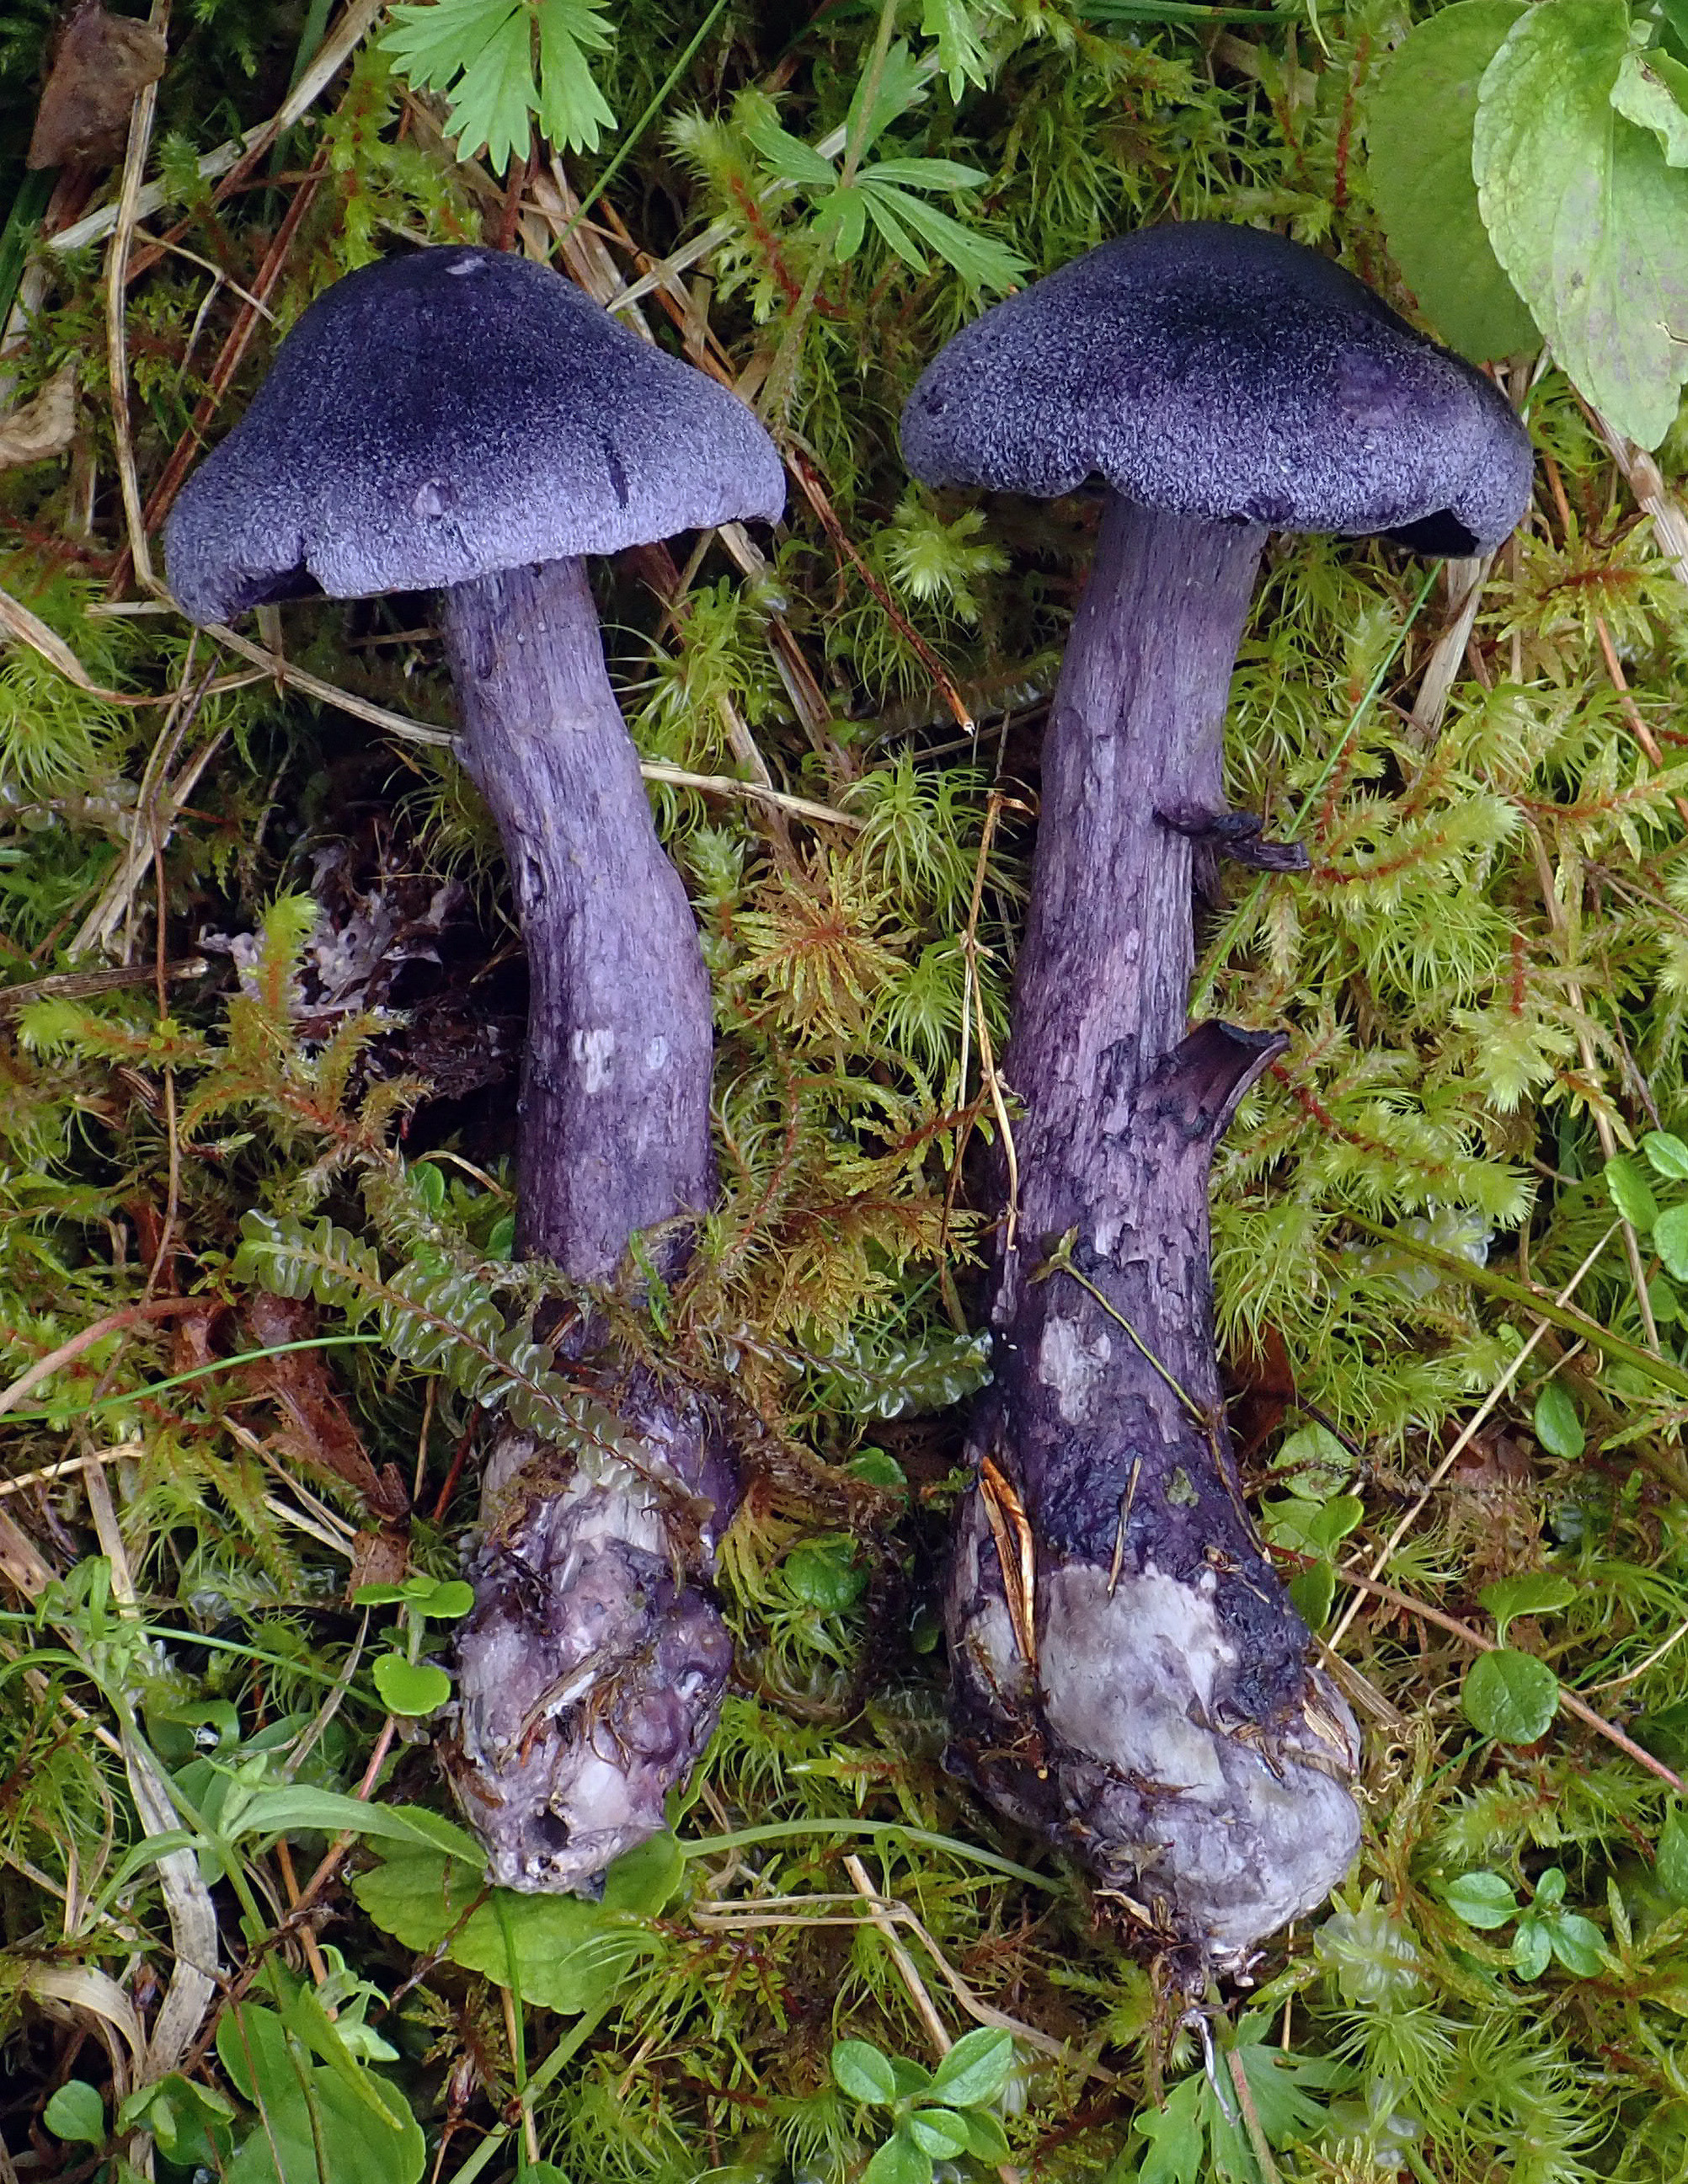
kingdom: Fungi
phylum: Basidiomycota
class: Agaricomycetes
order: Agaricales
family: Cortinariaceae
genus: Cortinarius
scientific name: Cortinarius violaceus
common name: Violet webcap
